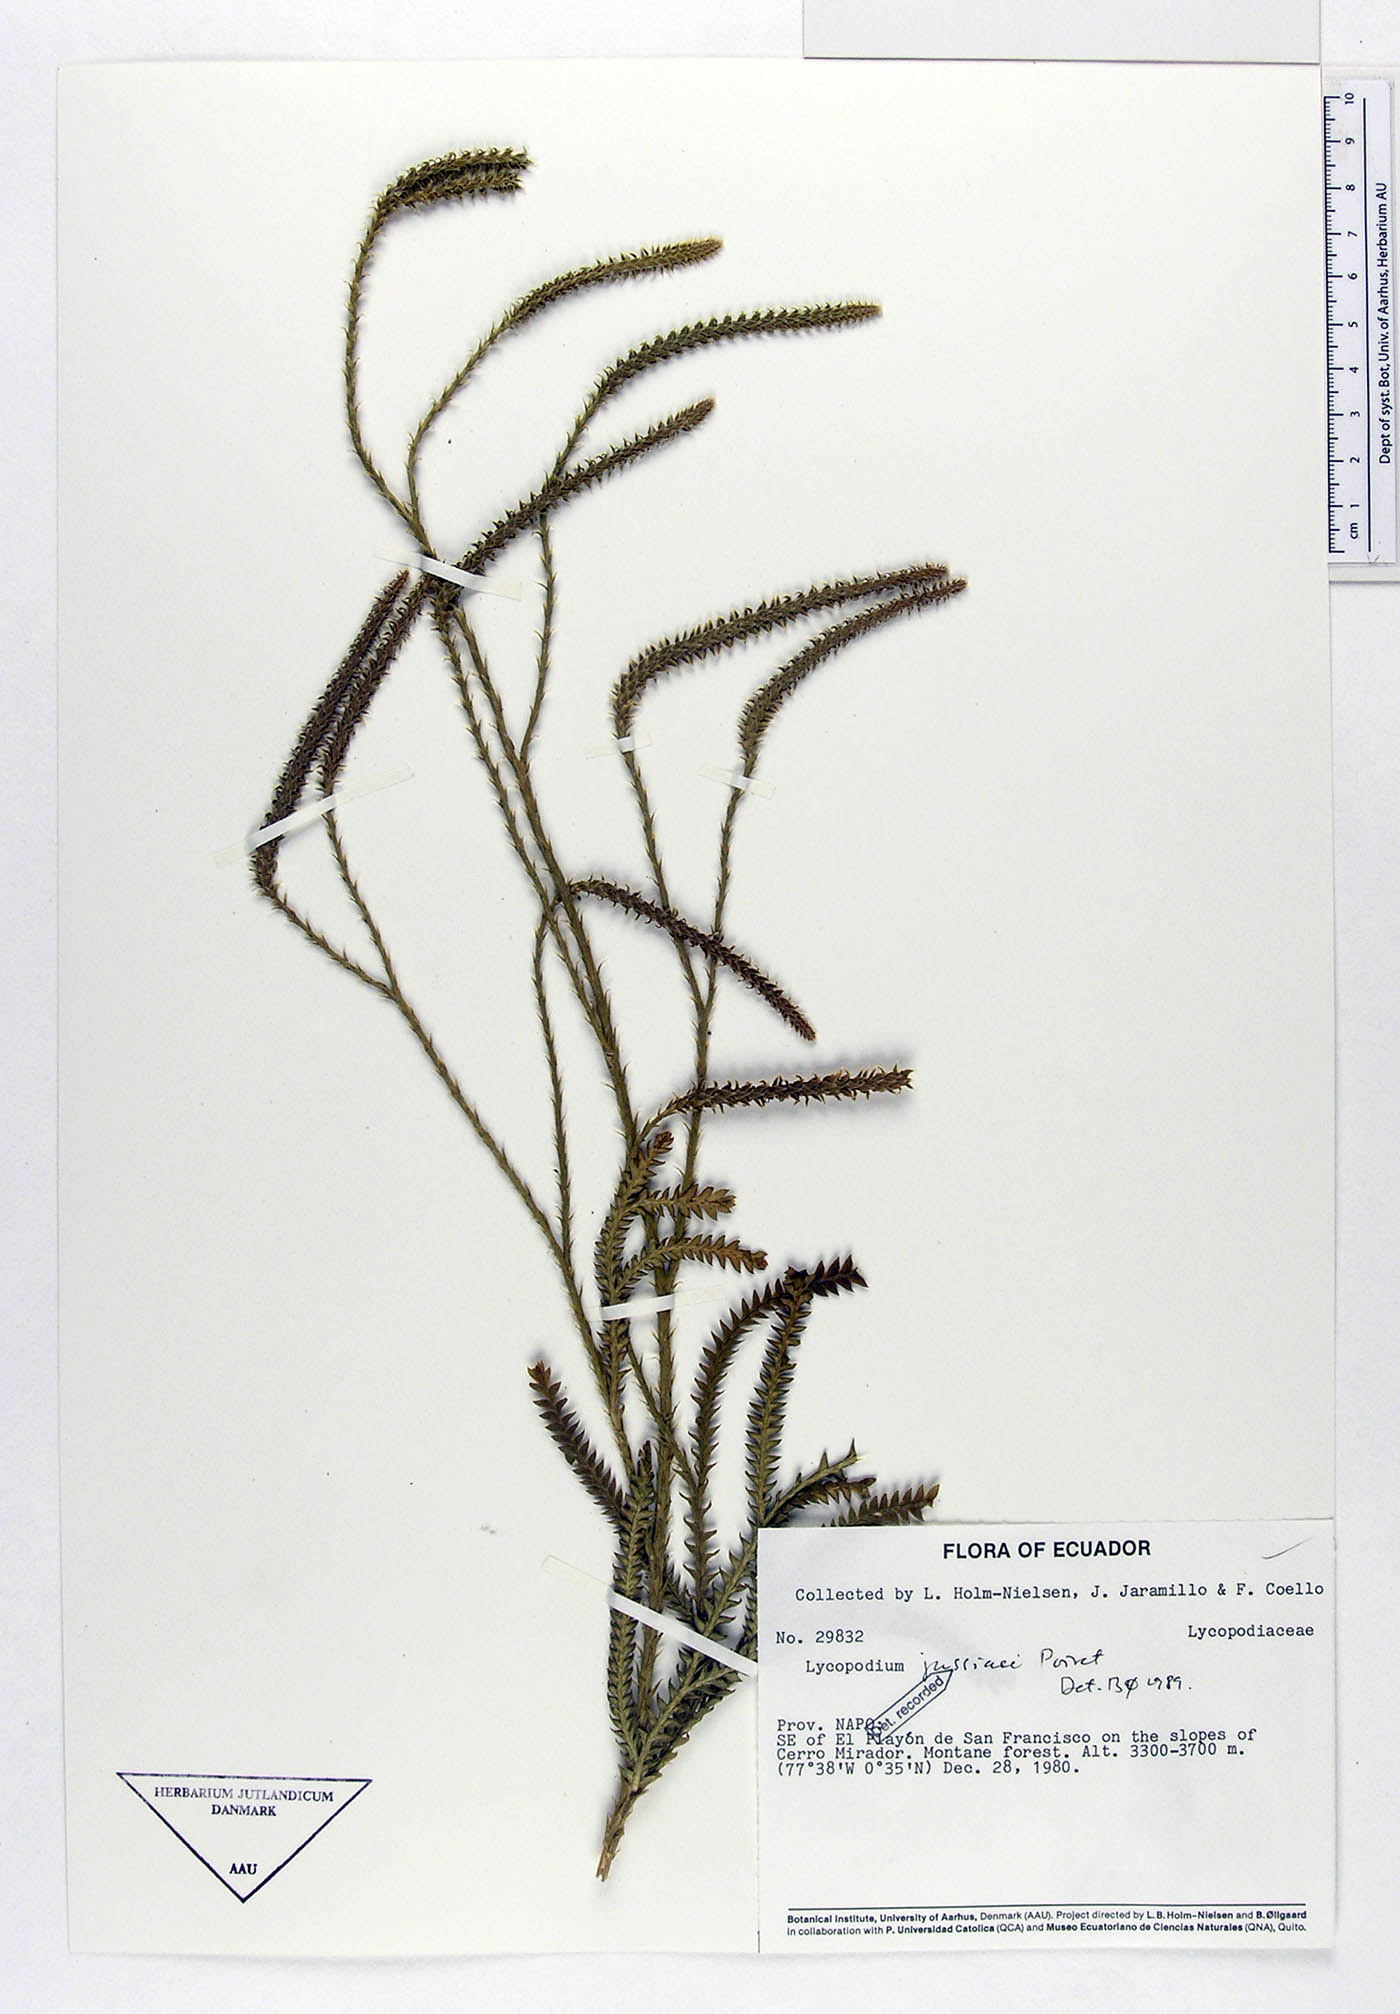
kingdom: Plantae
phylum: Tracheophyta
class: Lycopodiopsida
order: Lycopodiales
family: Lycopodiaceae
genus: Diphasium
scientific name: Diphasium jussiaei
